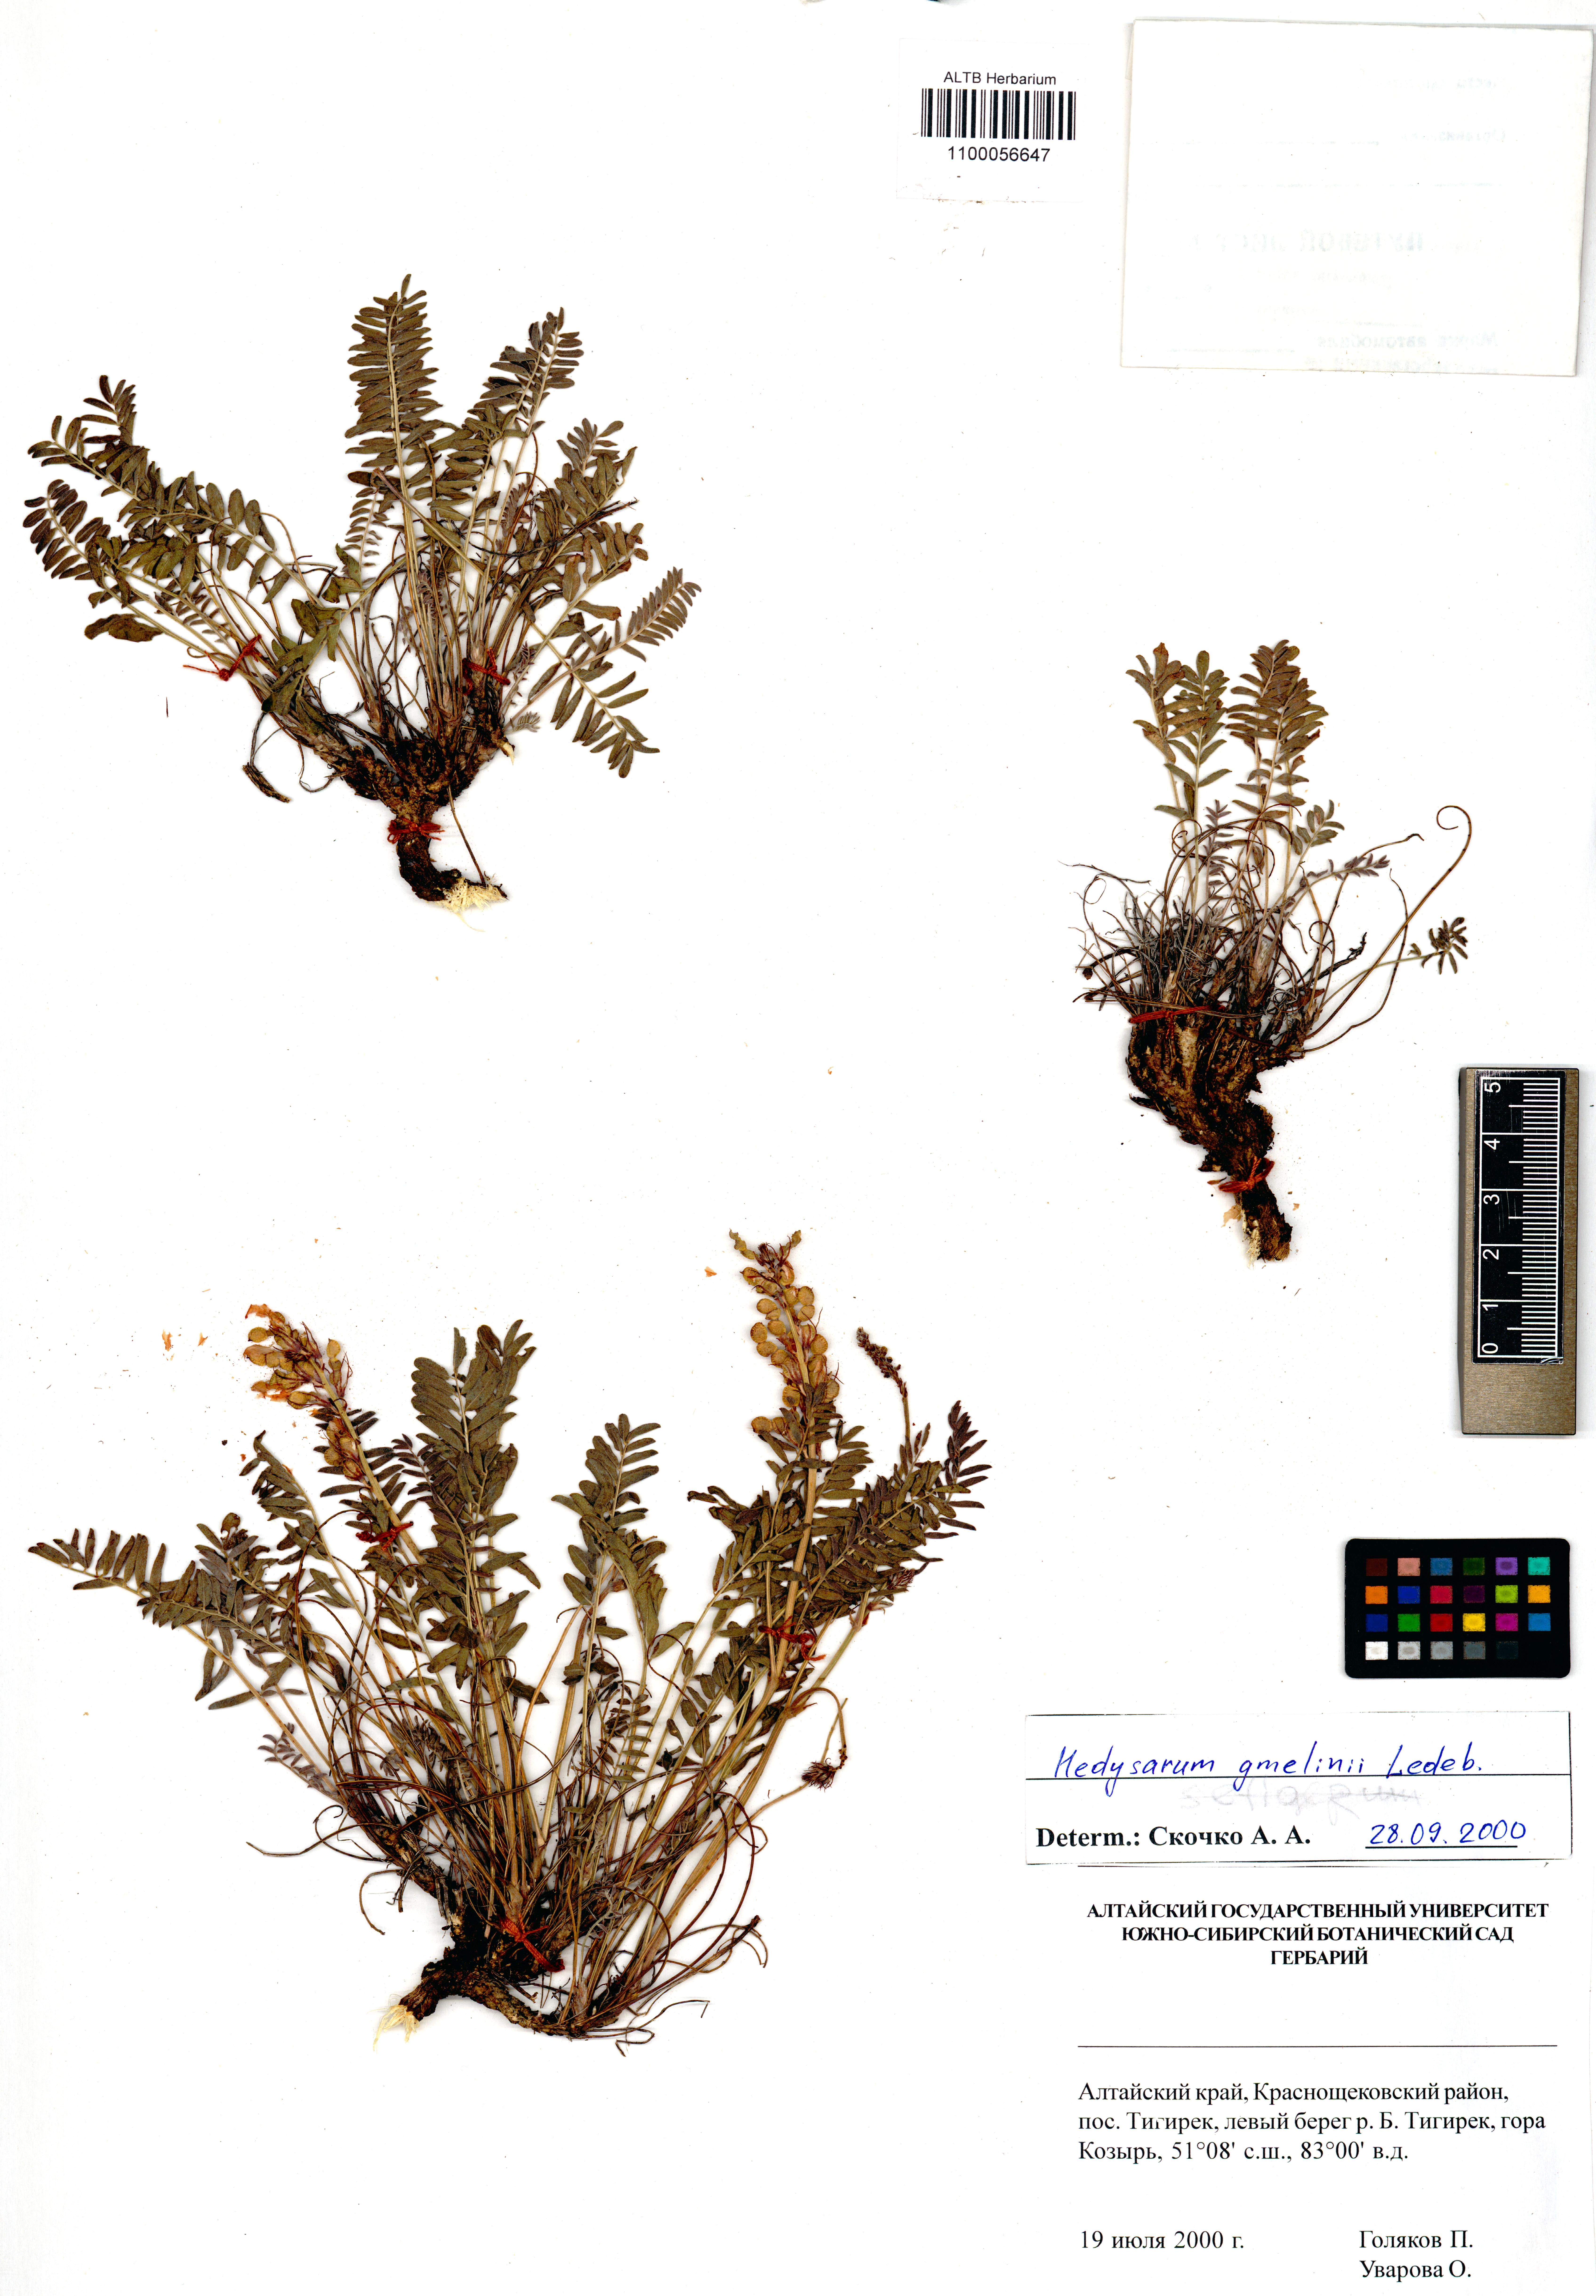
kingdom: Plantae
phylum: Tracheophyta
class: Magnoliopsida
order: Fabales
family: Fabaceae
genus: Hedysarum
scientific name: Hedysarum gmelinii
